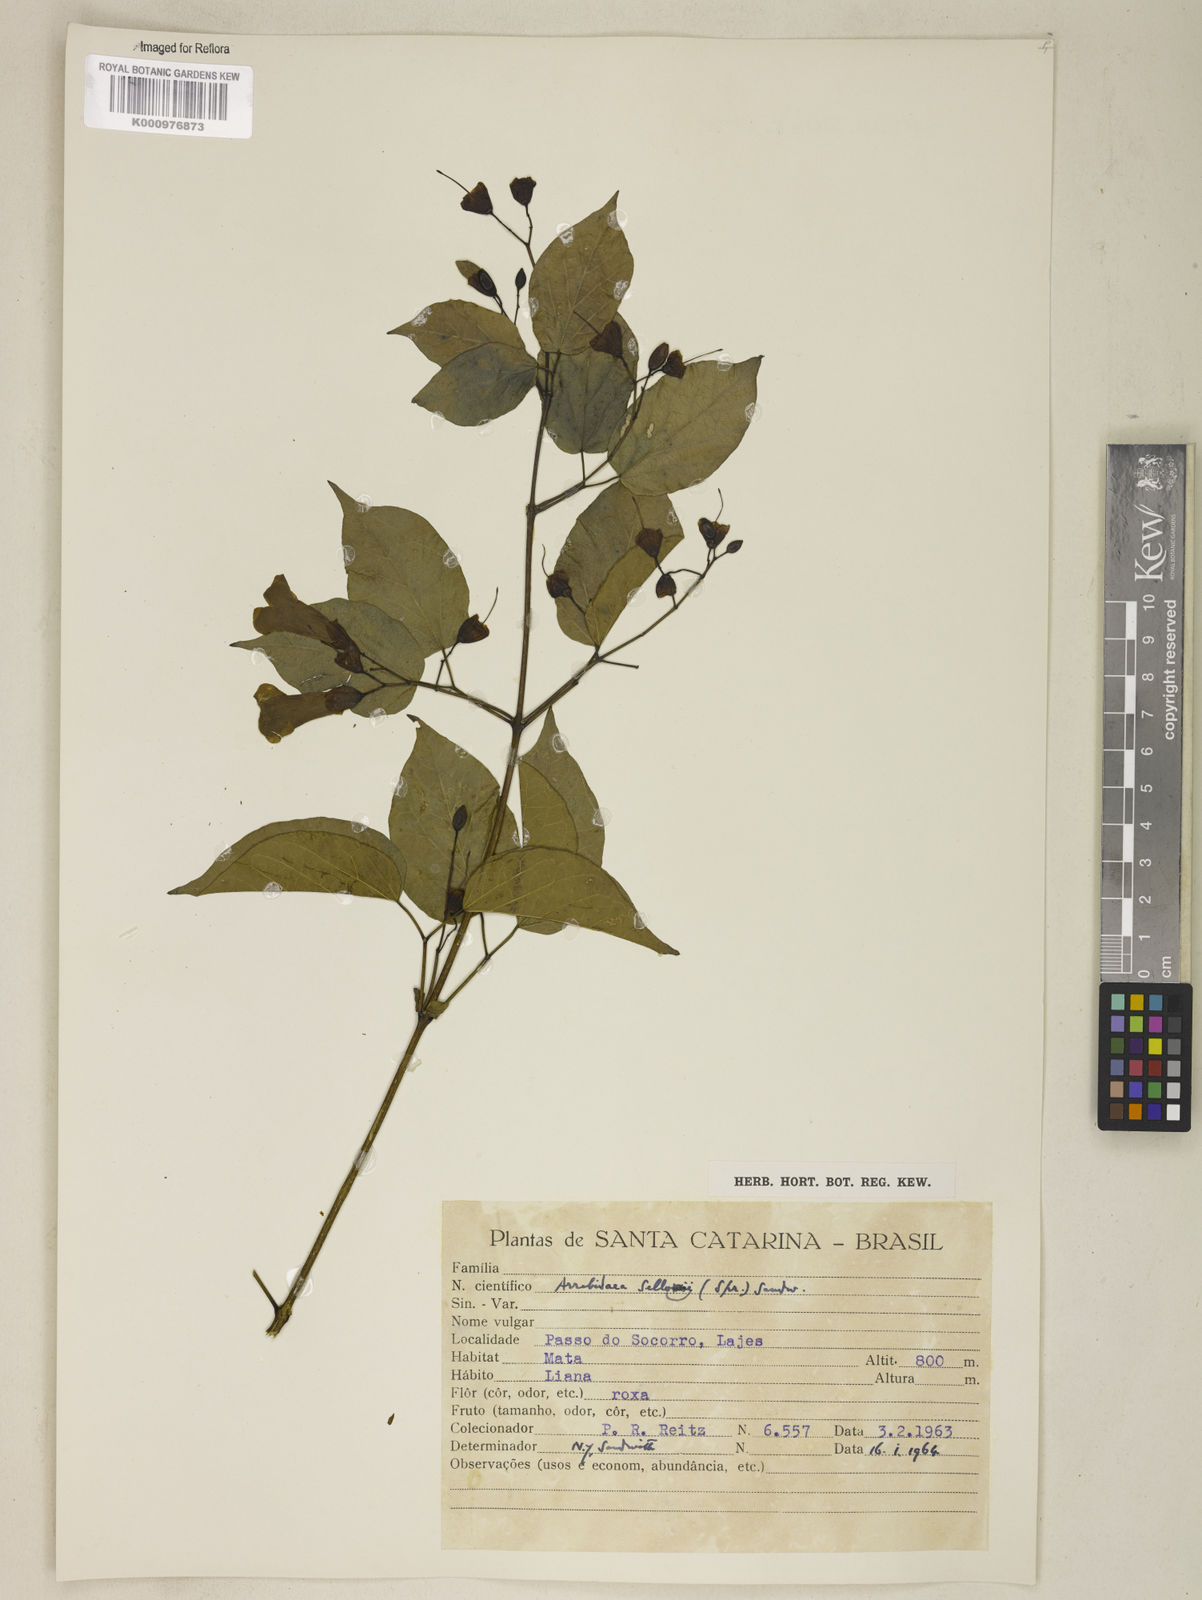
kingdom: Plantae
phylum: Tracheophyta
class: Magnoliopsida
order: Lamiales
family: Bignoniaceae
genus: Tanaecium
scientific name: Tanaecium selloi
